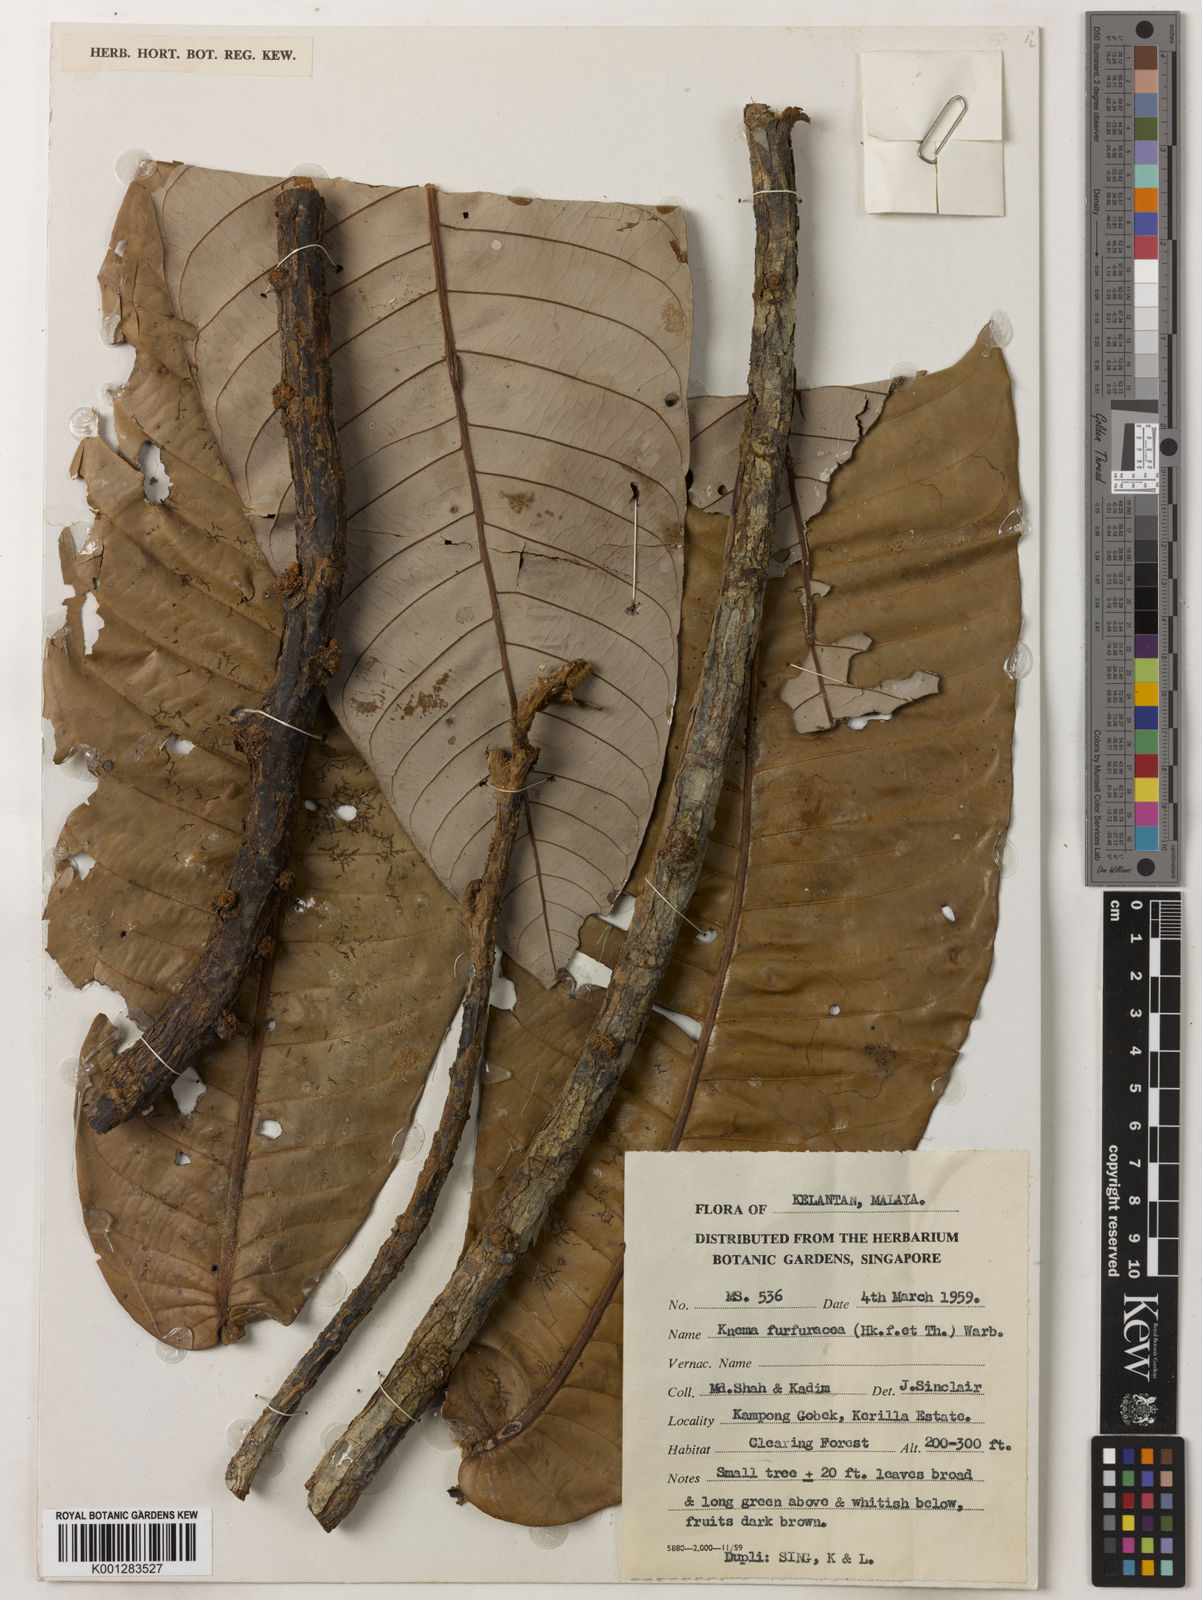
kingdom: Plantae
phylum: Tracheophyta
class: Magnoliopsida
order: Magnoliales
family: Myristicaceae
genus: Knema
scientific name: Knema furfuracea
